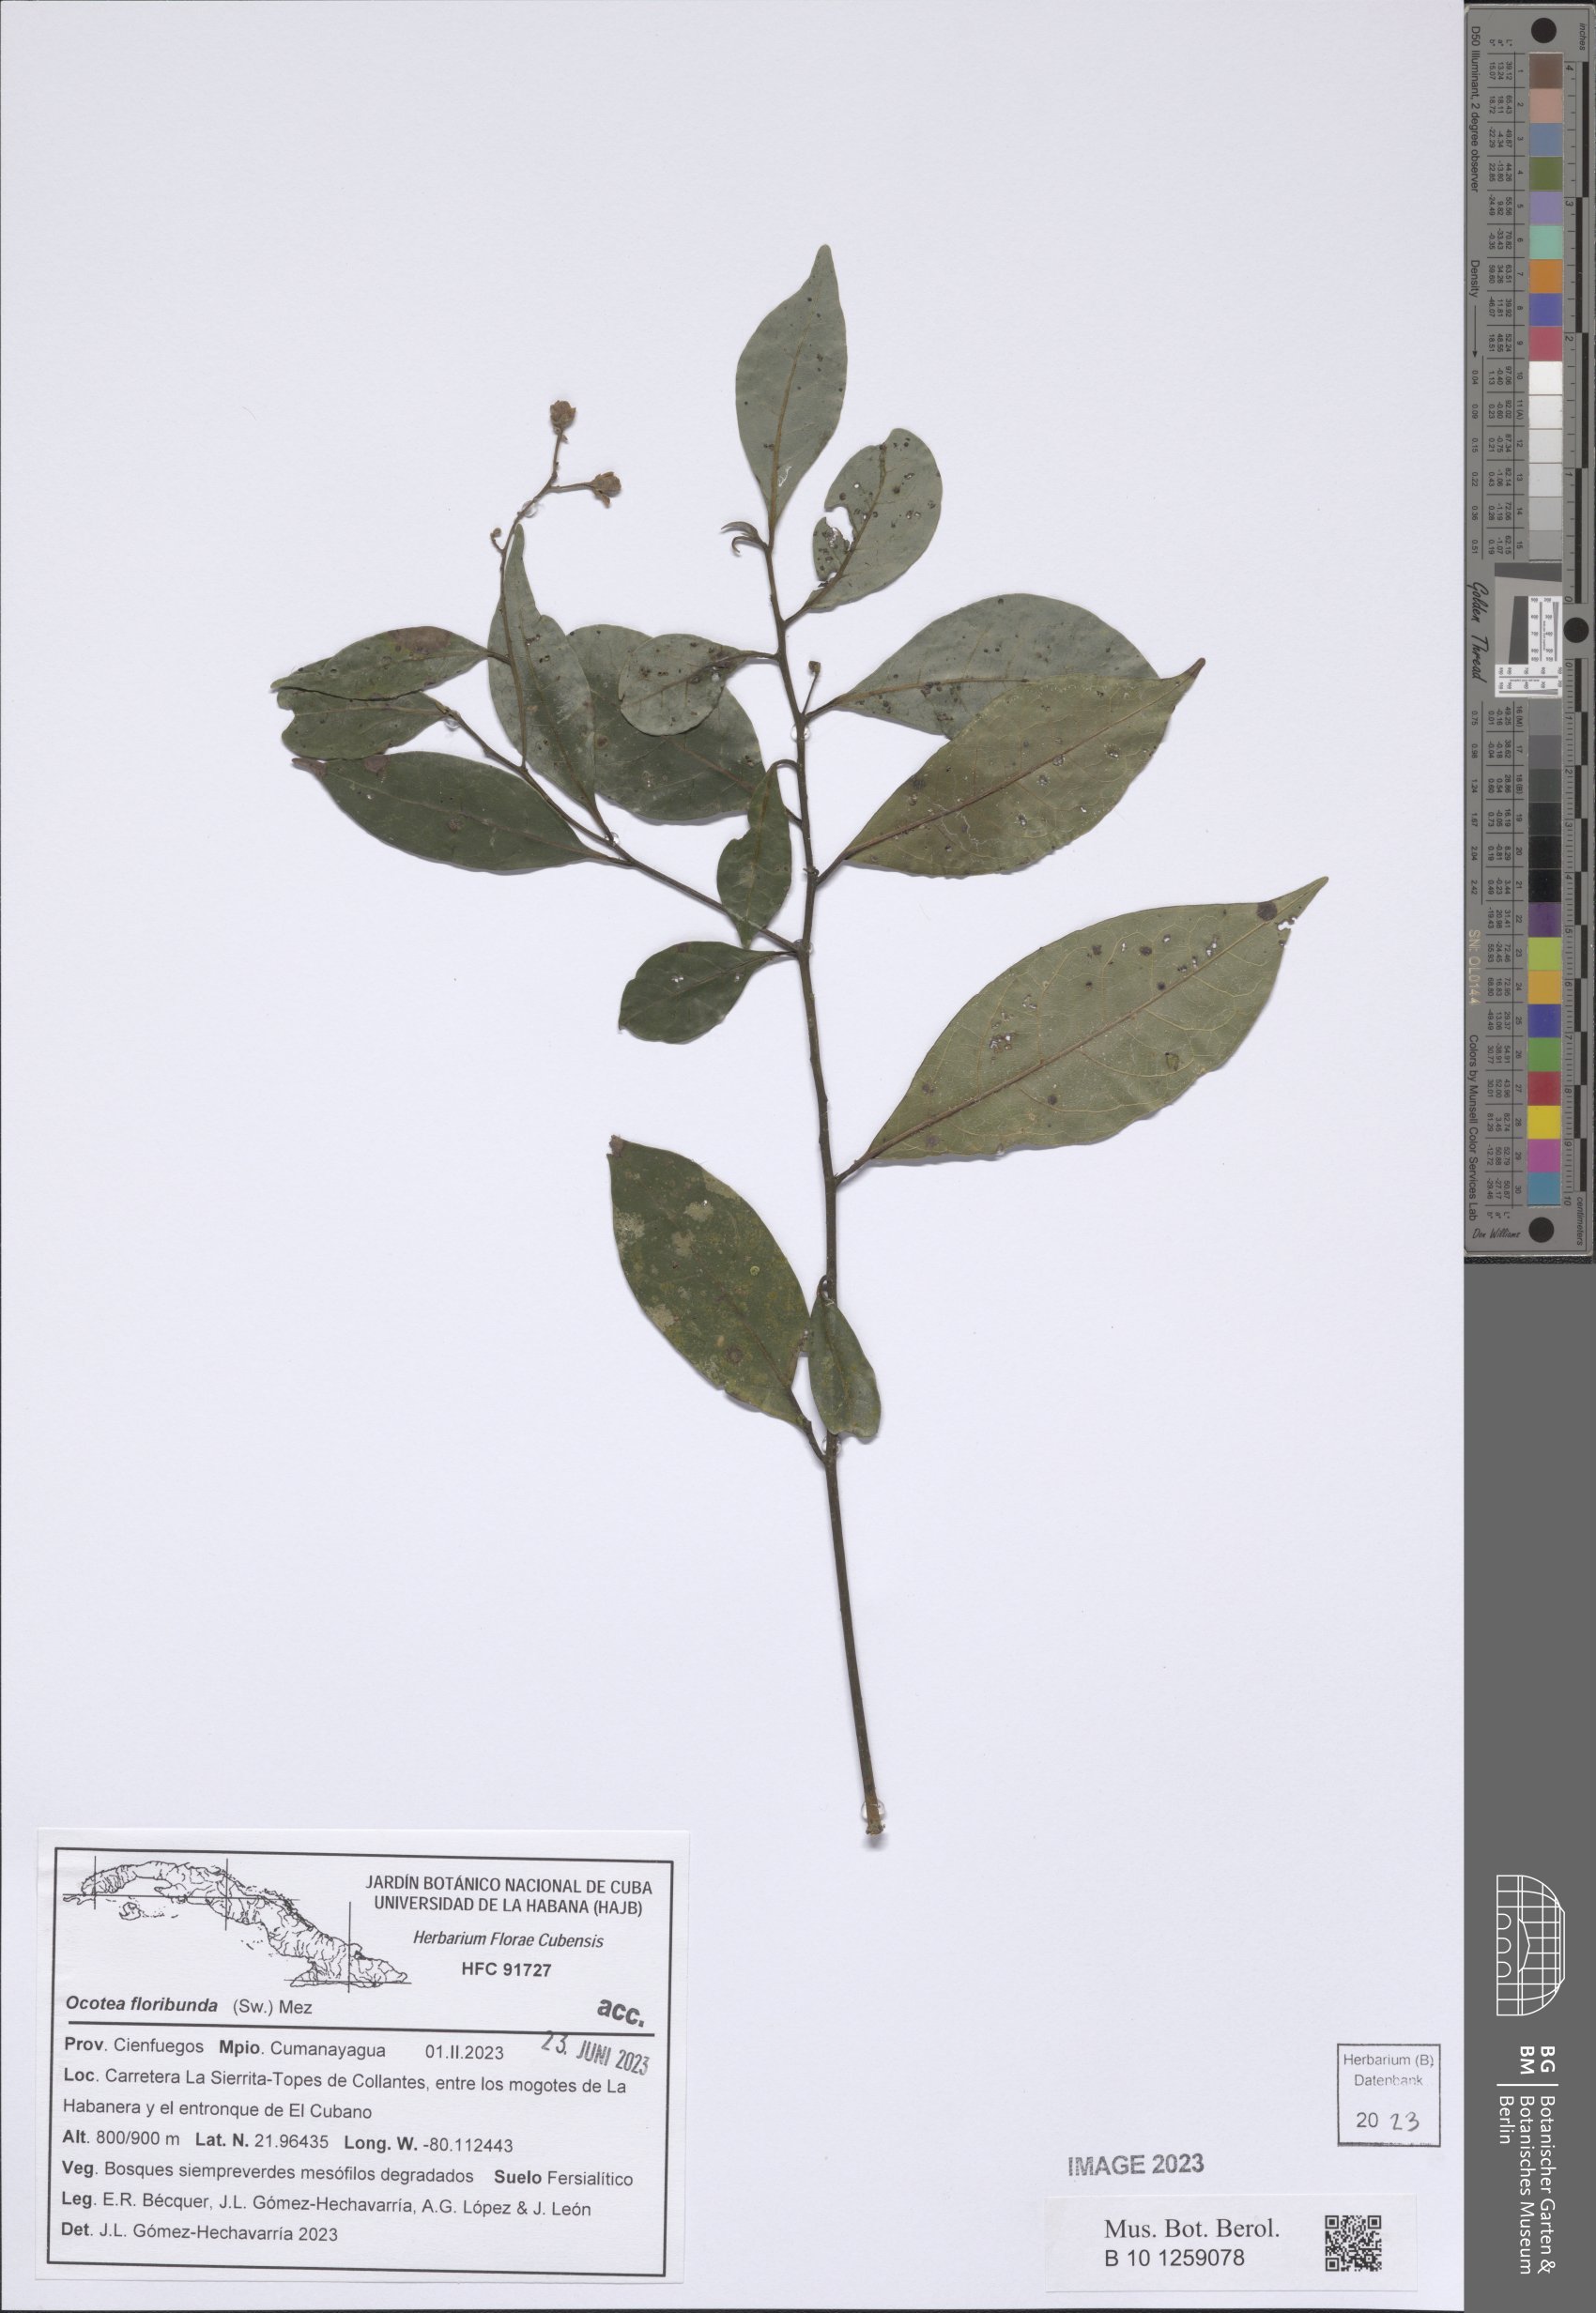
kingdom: Plantae
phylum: Tracheophyta
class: Magnoliopsida
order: Laurales
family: Lauraceae
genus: Ocotea
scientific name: Ocotea floribunda
